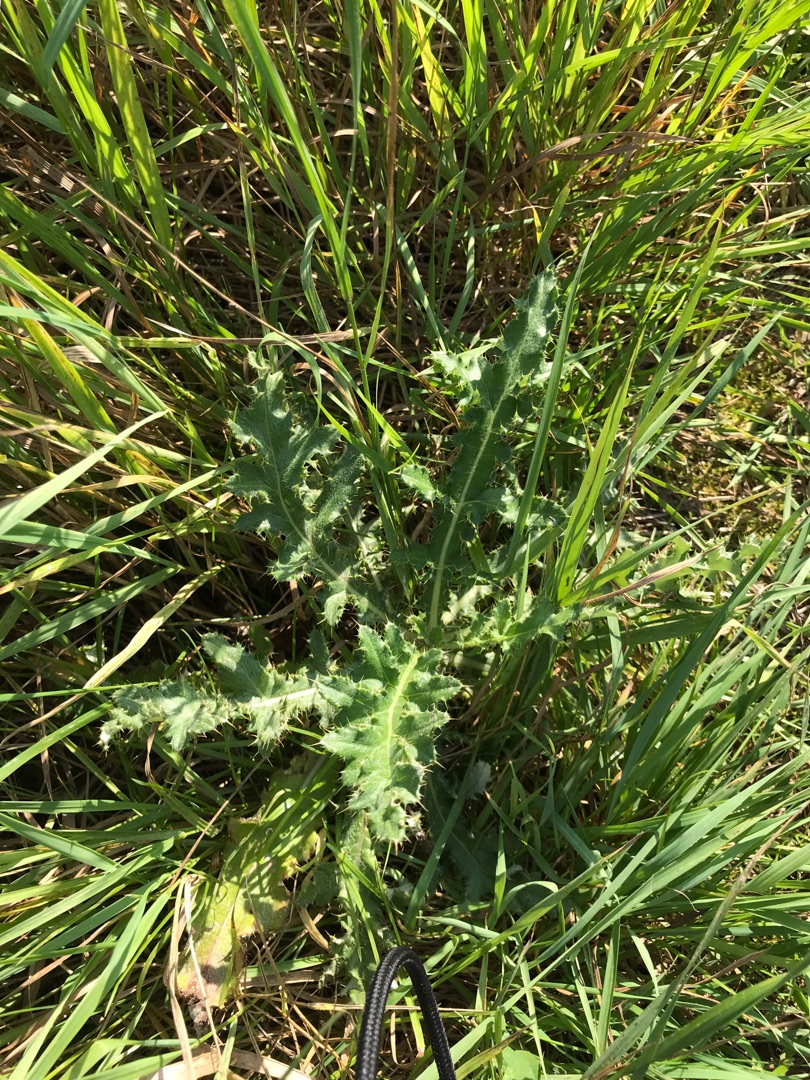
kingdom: Plantae
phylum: Tracheophyta
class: Magnoliopsida
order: Asterales
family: Asteraceae
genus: Cirsium
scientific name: Cirsium arvense
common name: Ager-tidsel
